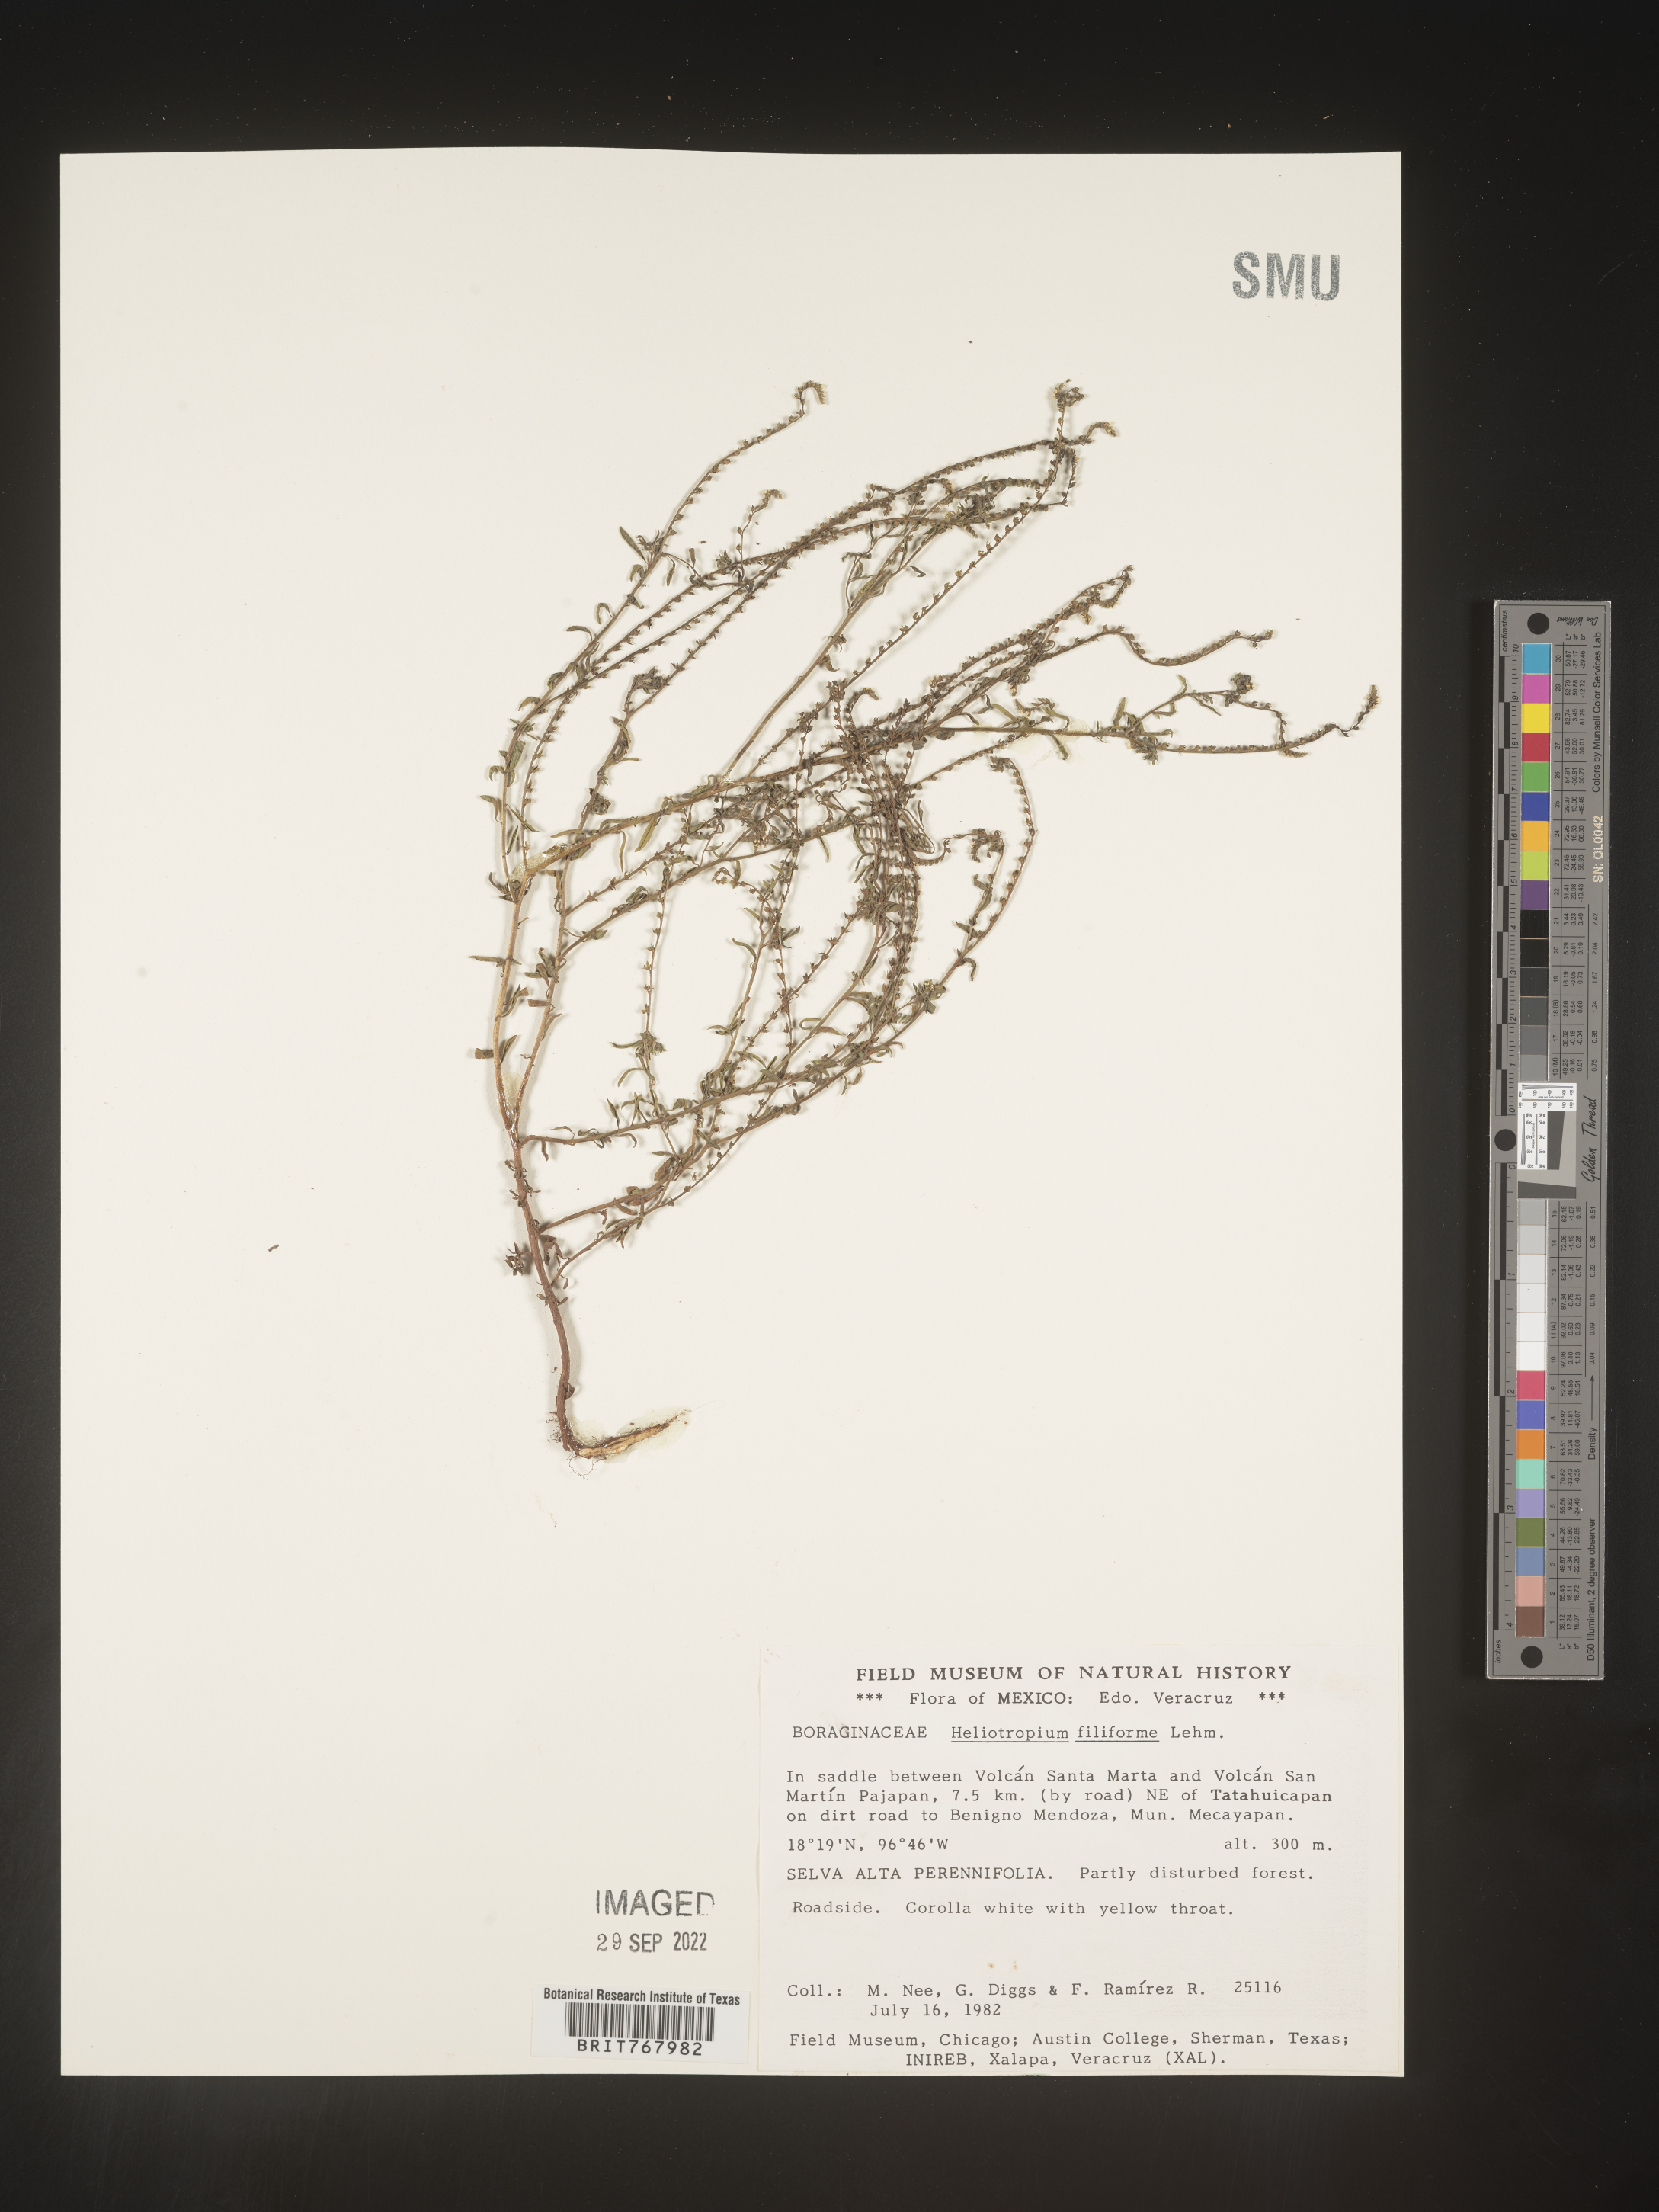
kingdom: Plantae
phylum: Tracheophyta
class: Magnoliopsida
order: Boraginales
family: Heliotropiaceae
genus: Heliotropium
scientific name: Heliotropium
